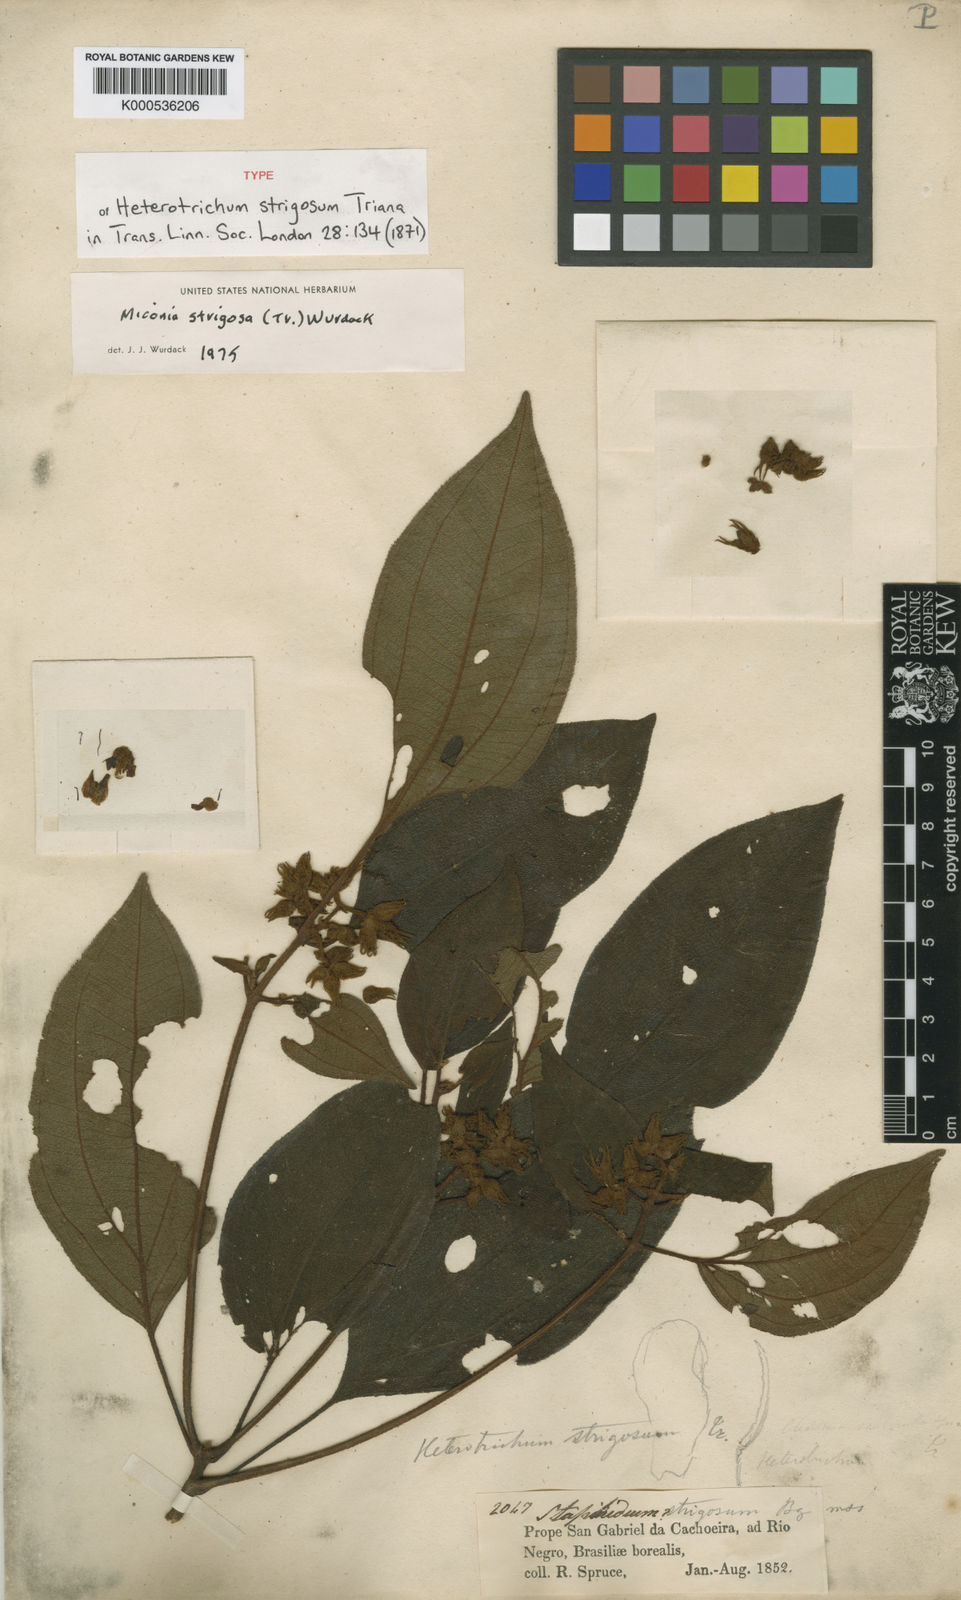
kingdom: Plantae
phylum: Tracheophyta
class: Magnoliopsida
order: Myrtales
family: Melastomataceae
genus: Miconia
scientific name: Miconia strigosa
